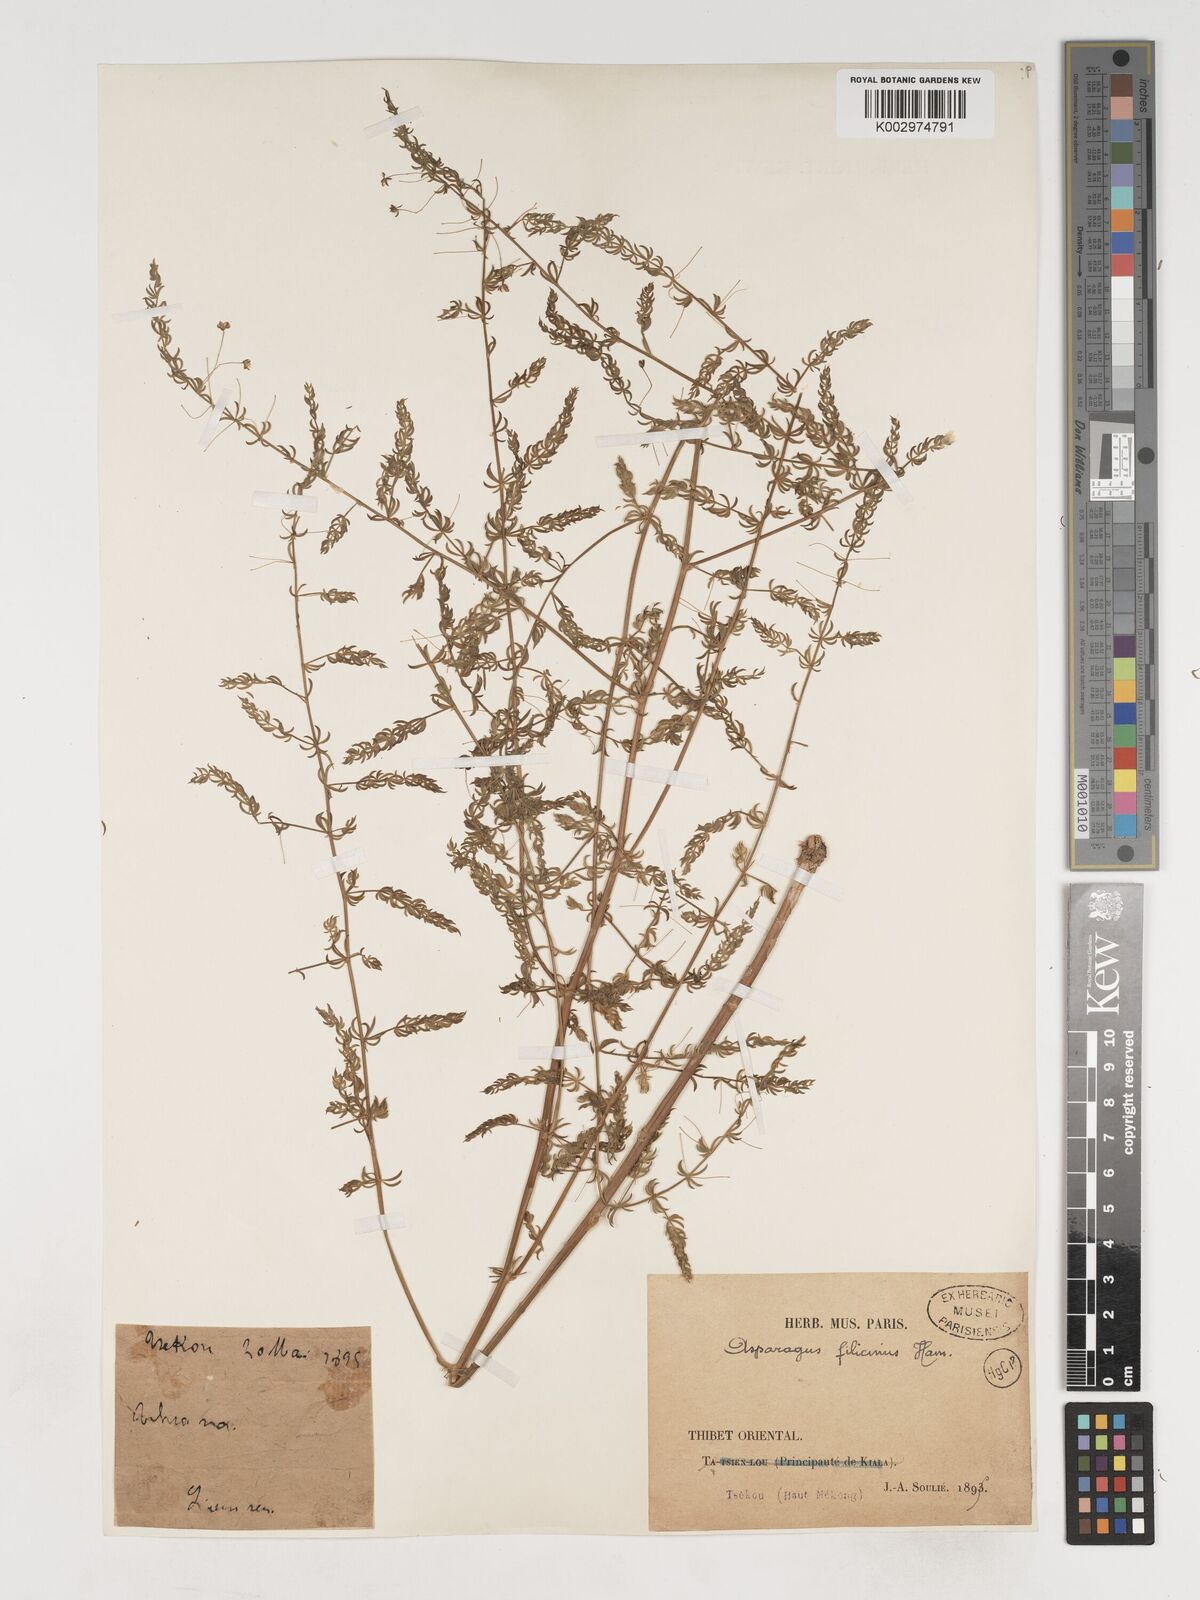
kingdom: Plantae
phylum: Tracheophyta
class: Liliopsida
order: Asparagales
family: Asparagaceae
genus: Asparagus
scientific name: Asparagus filicinus
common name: Fern asparagus
